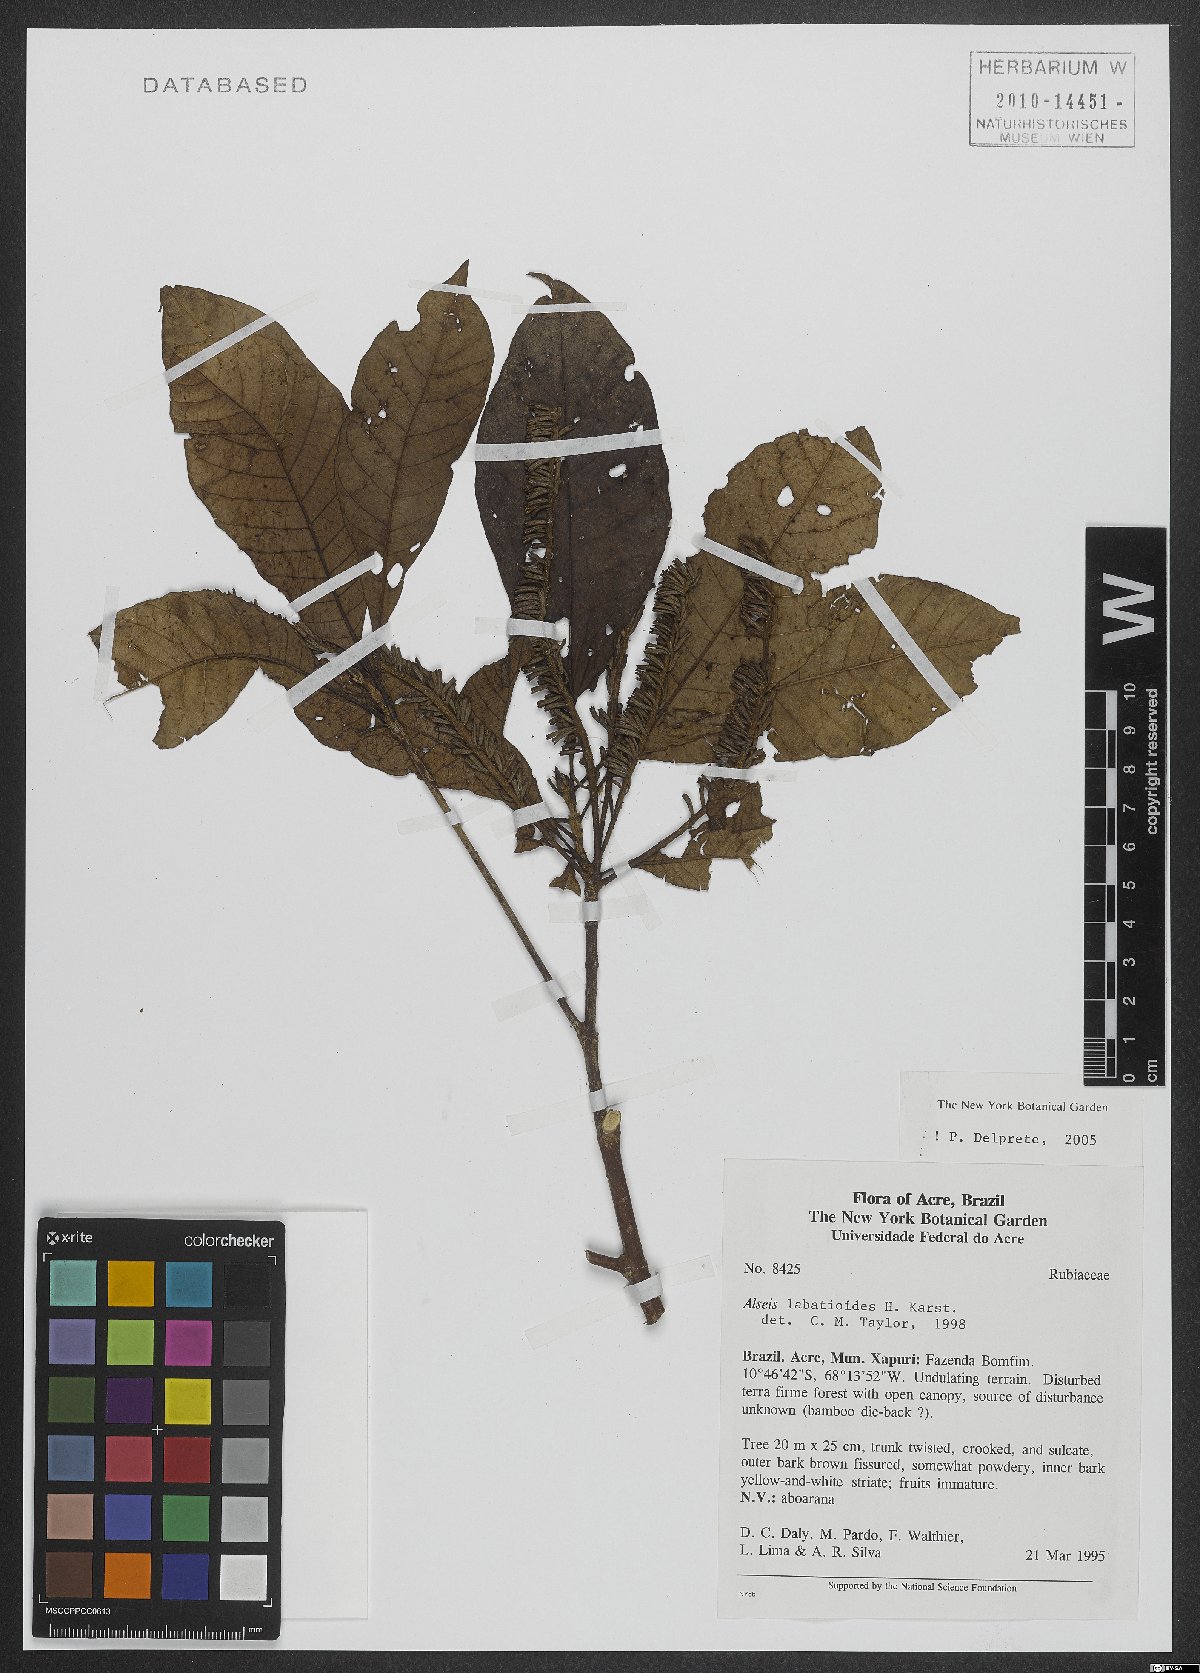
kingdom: Plantae
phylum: Tracheophyta
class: Magnoliopsida
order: Gentianales
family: Rubiaceae
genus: Alseis
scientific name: Alseis labatioides
